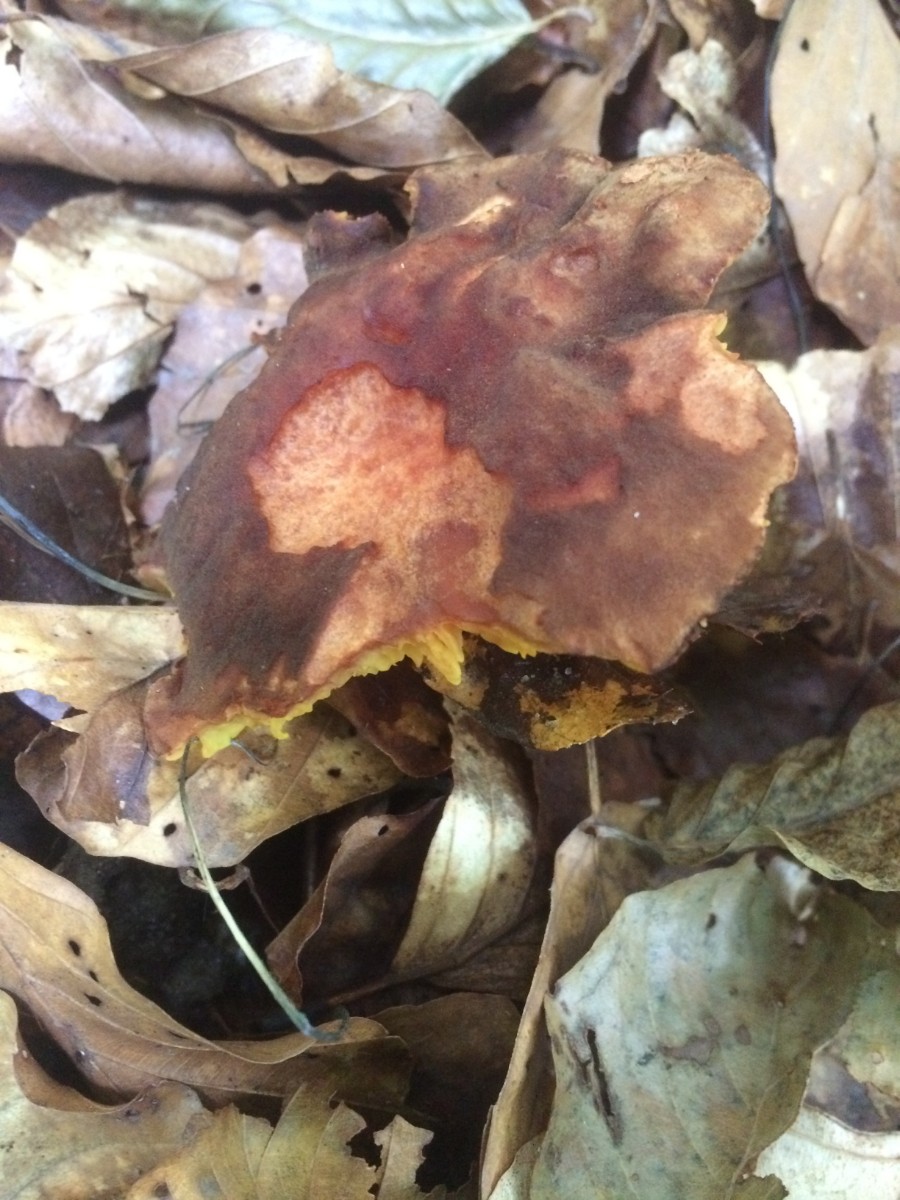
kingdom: Fungi
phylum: Basidiomycota
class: Agaricomycetes
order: Boletales
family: Boletaceae
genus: Phylloporus
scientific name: Phylloporus pelletieri
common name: lamelrørhat
